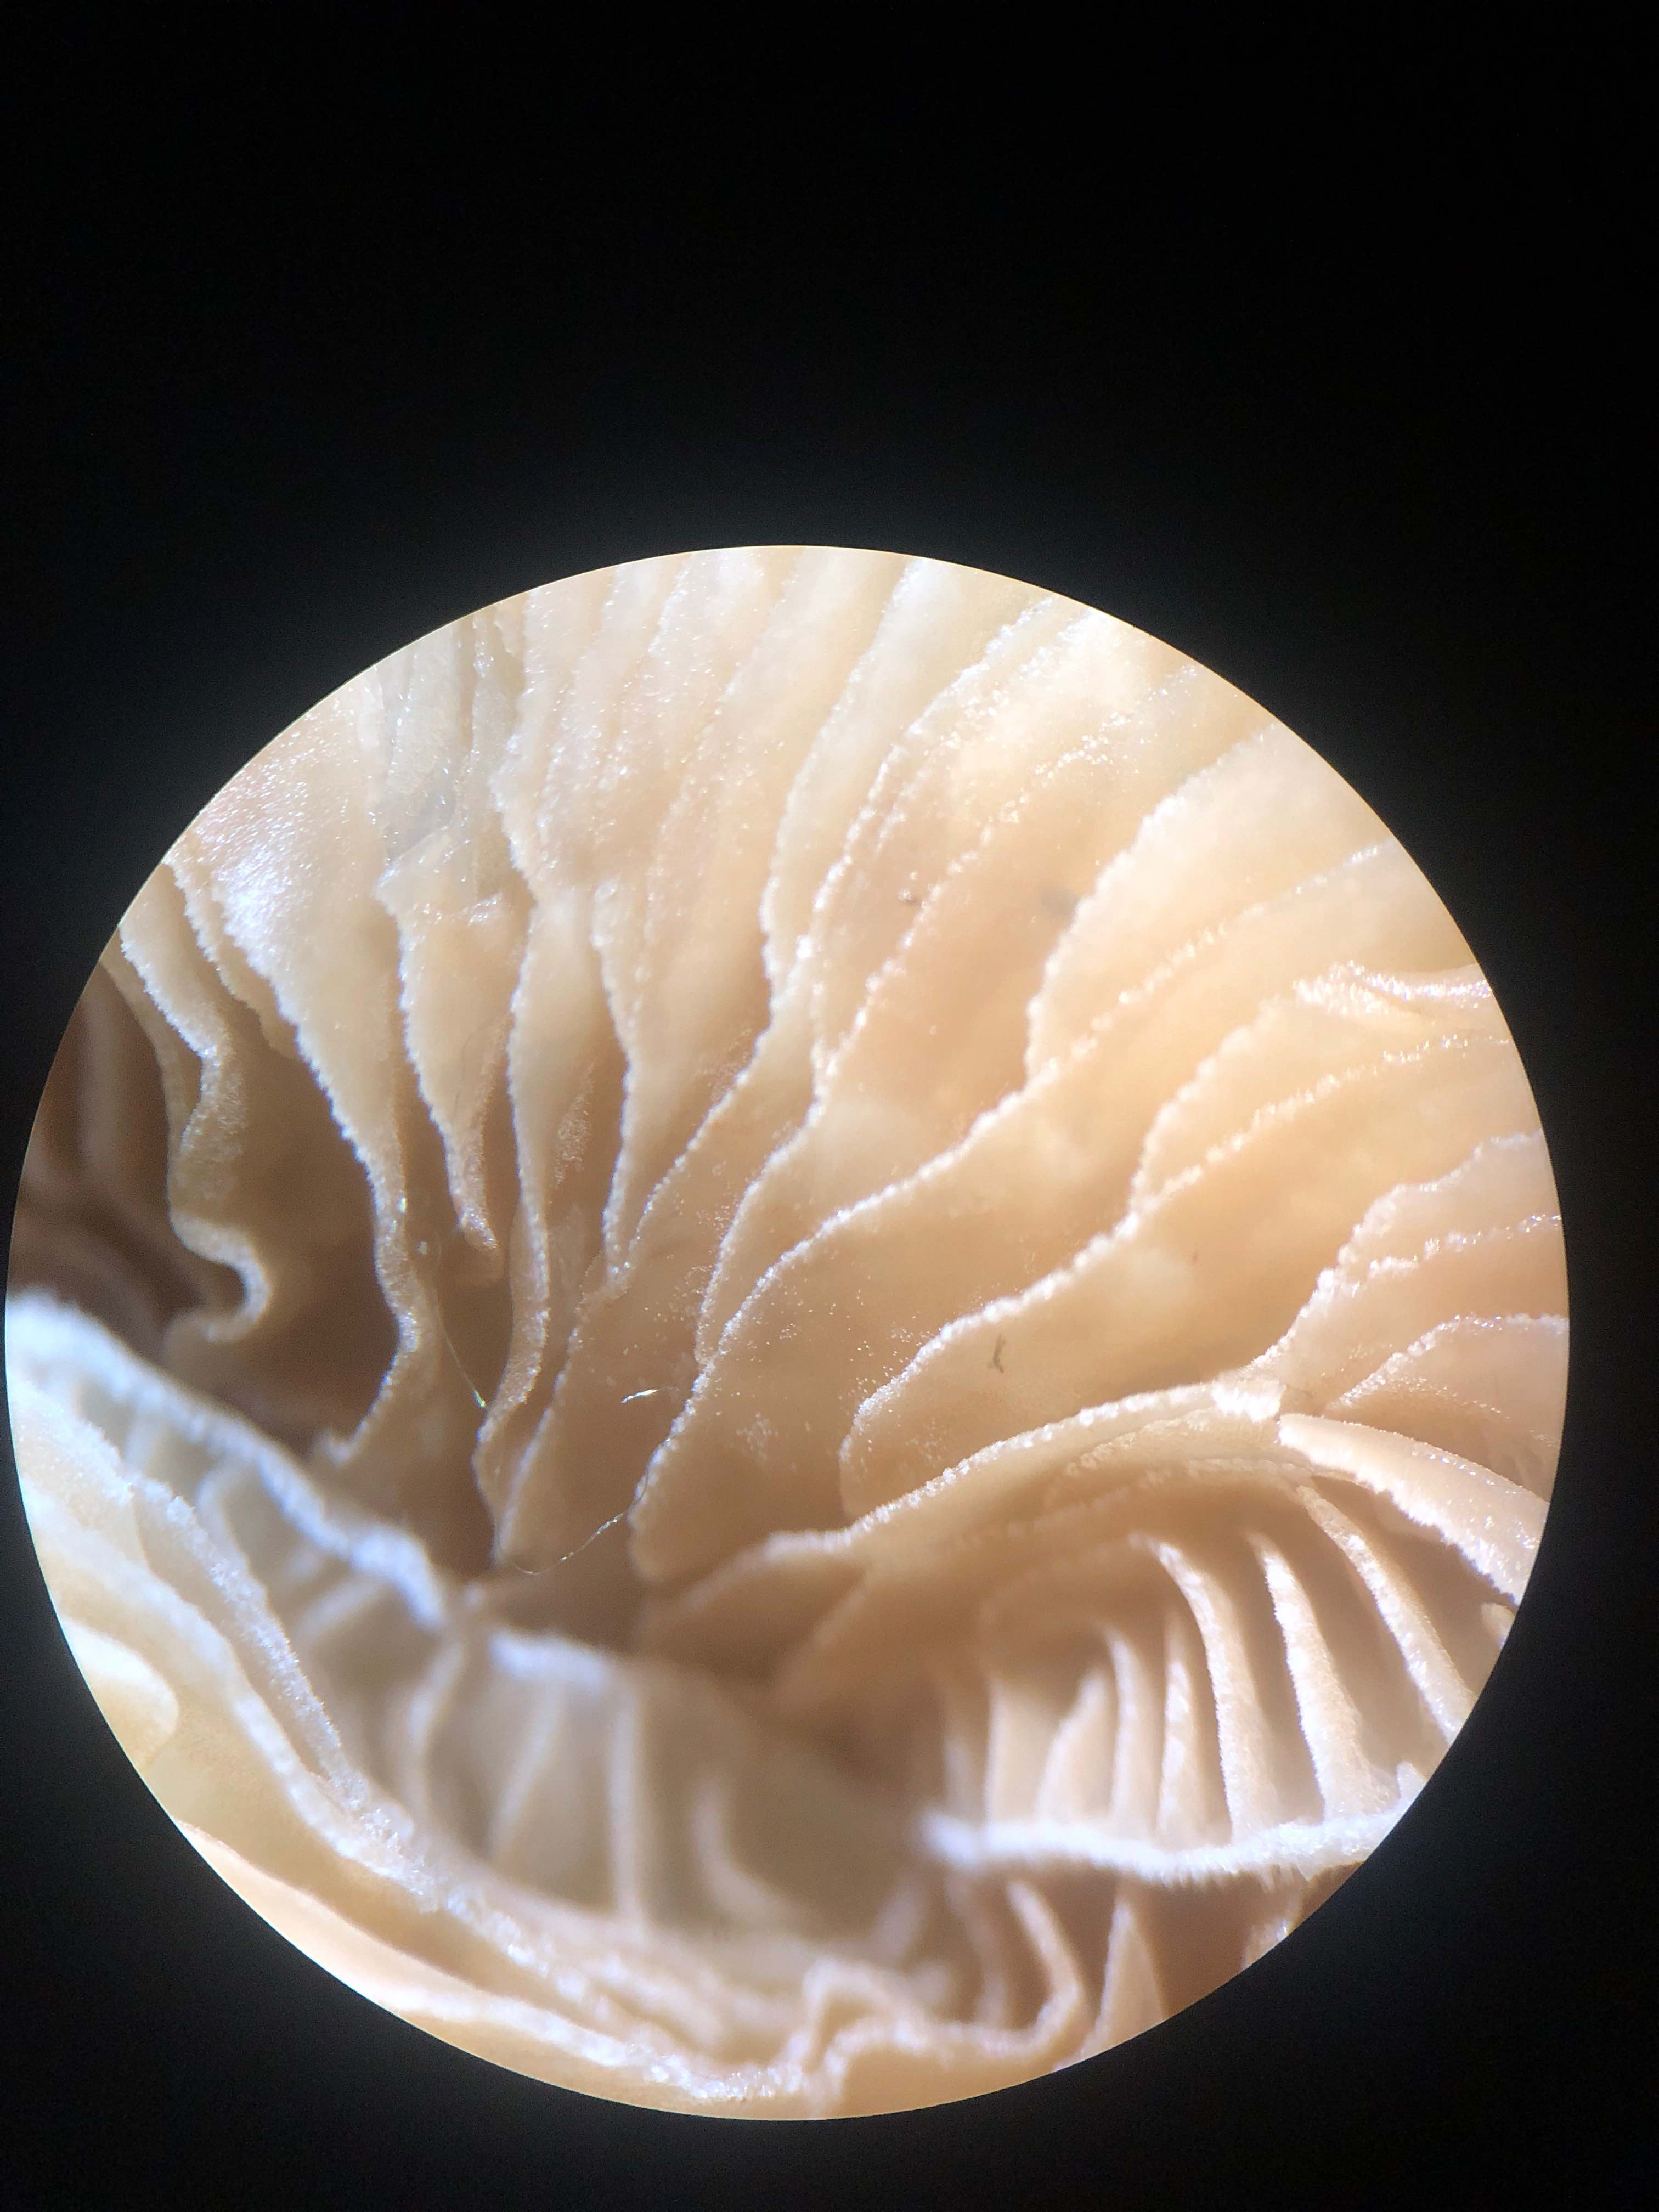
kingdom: Fungi
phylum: Basidiomycota
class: Agaricomycetes
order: Agaricales
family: Crepidotaceae
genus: Crepidotus
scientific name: Crepidotus subverrucisporus
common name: mandelsporet muslingesvamp
